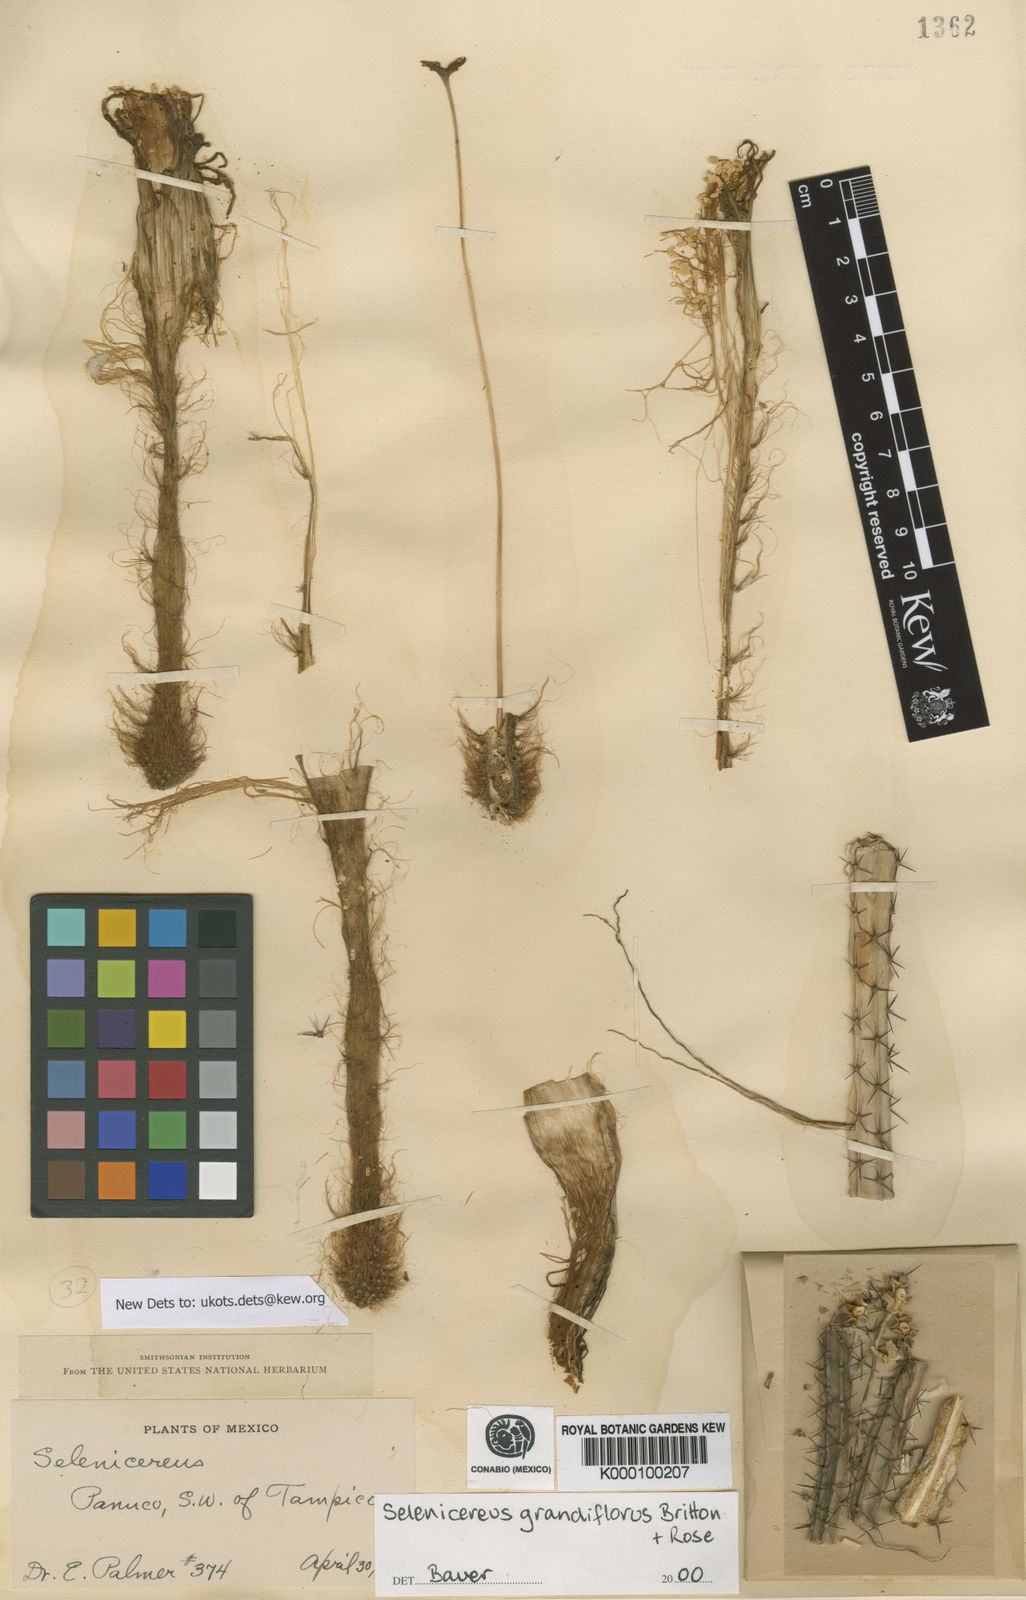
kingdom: Plantae
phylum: Tracheophyta
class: Magnoliopsida
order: Caryophyllales
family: Cactaceae
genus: Selenicereus
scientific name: Selenicereus grandiflorus
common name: Queen of the night
